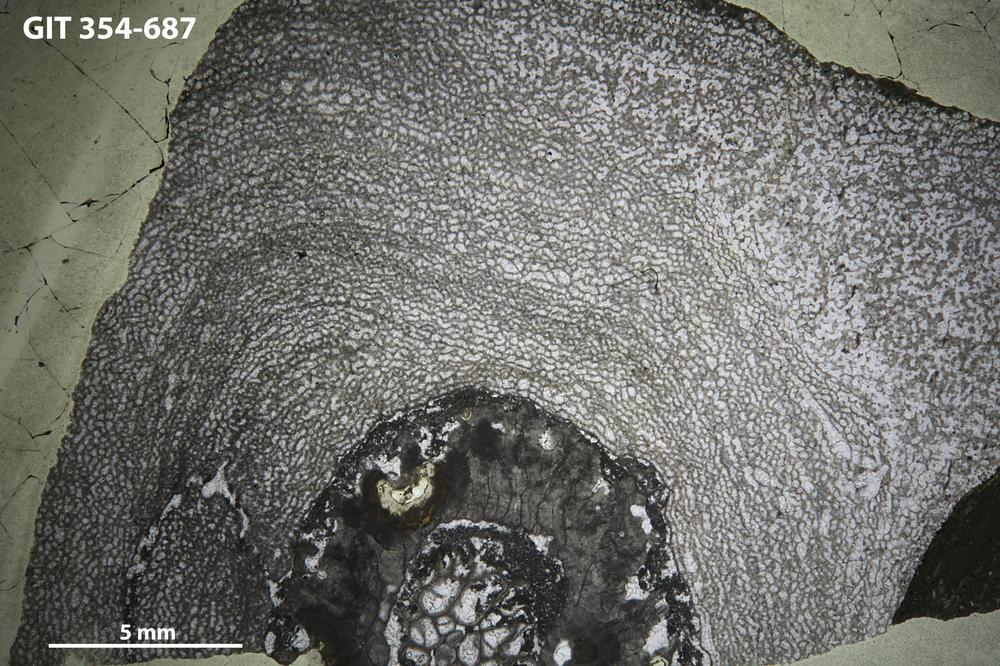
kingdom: Animalia
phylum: Porifera
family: Ecclimadictyidae
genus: Ecclimadictyon
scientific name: Ecclimadictyon
